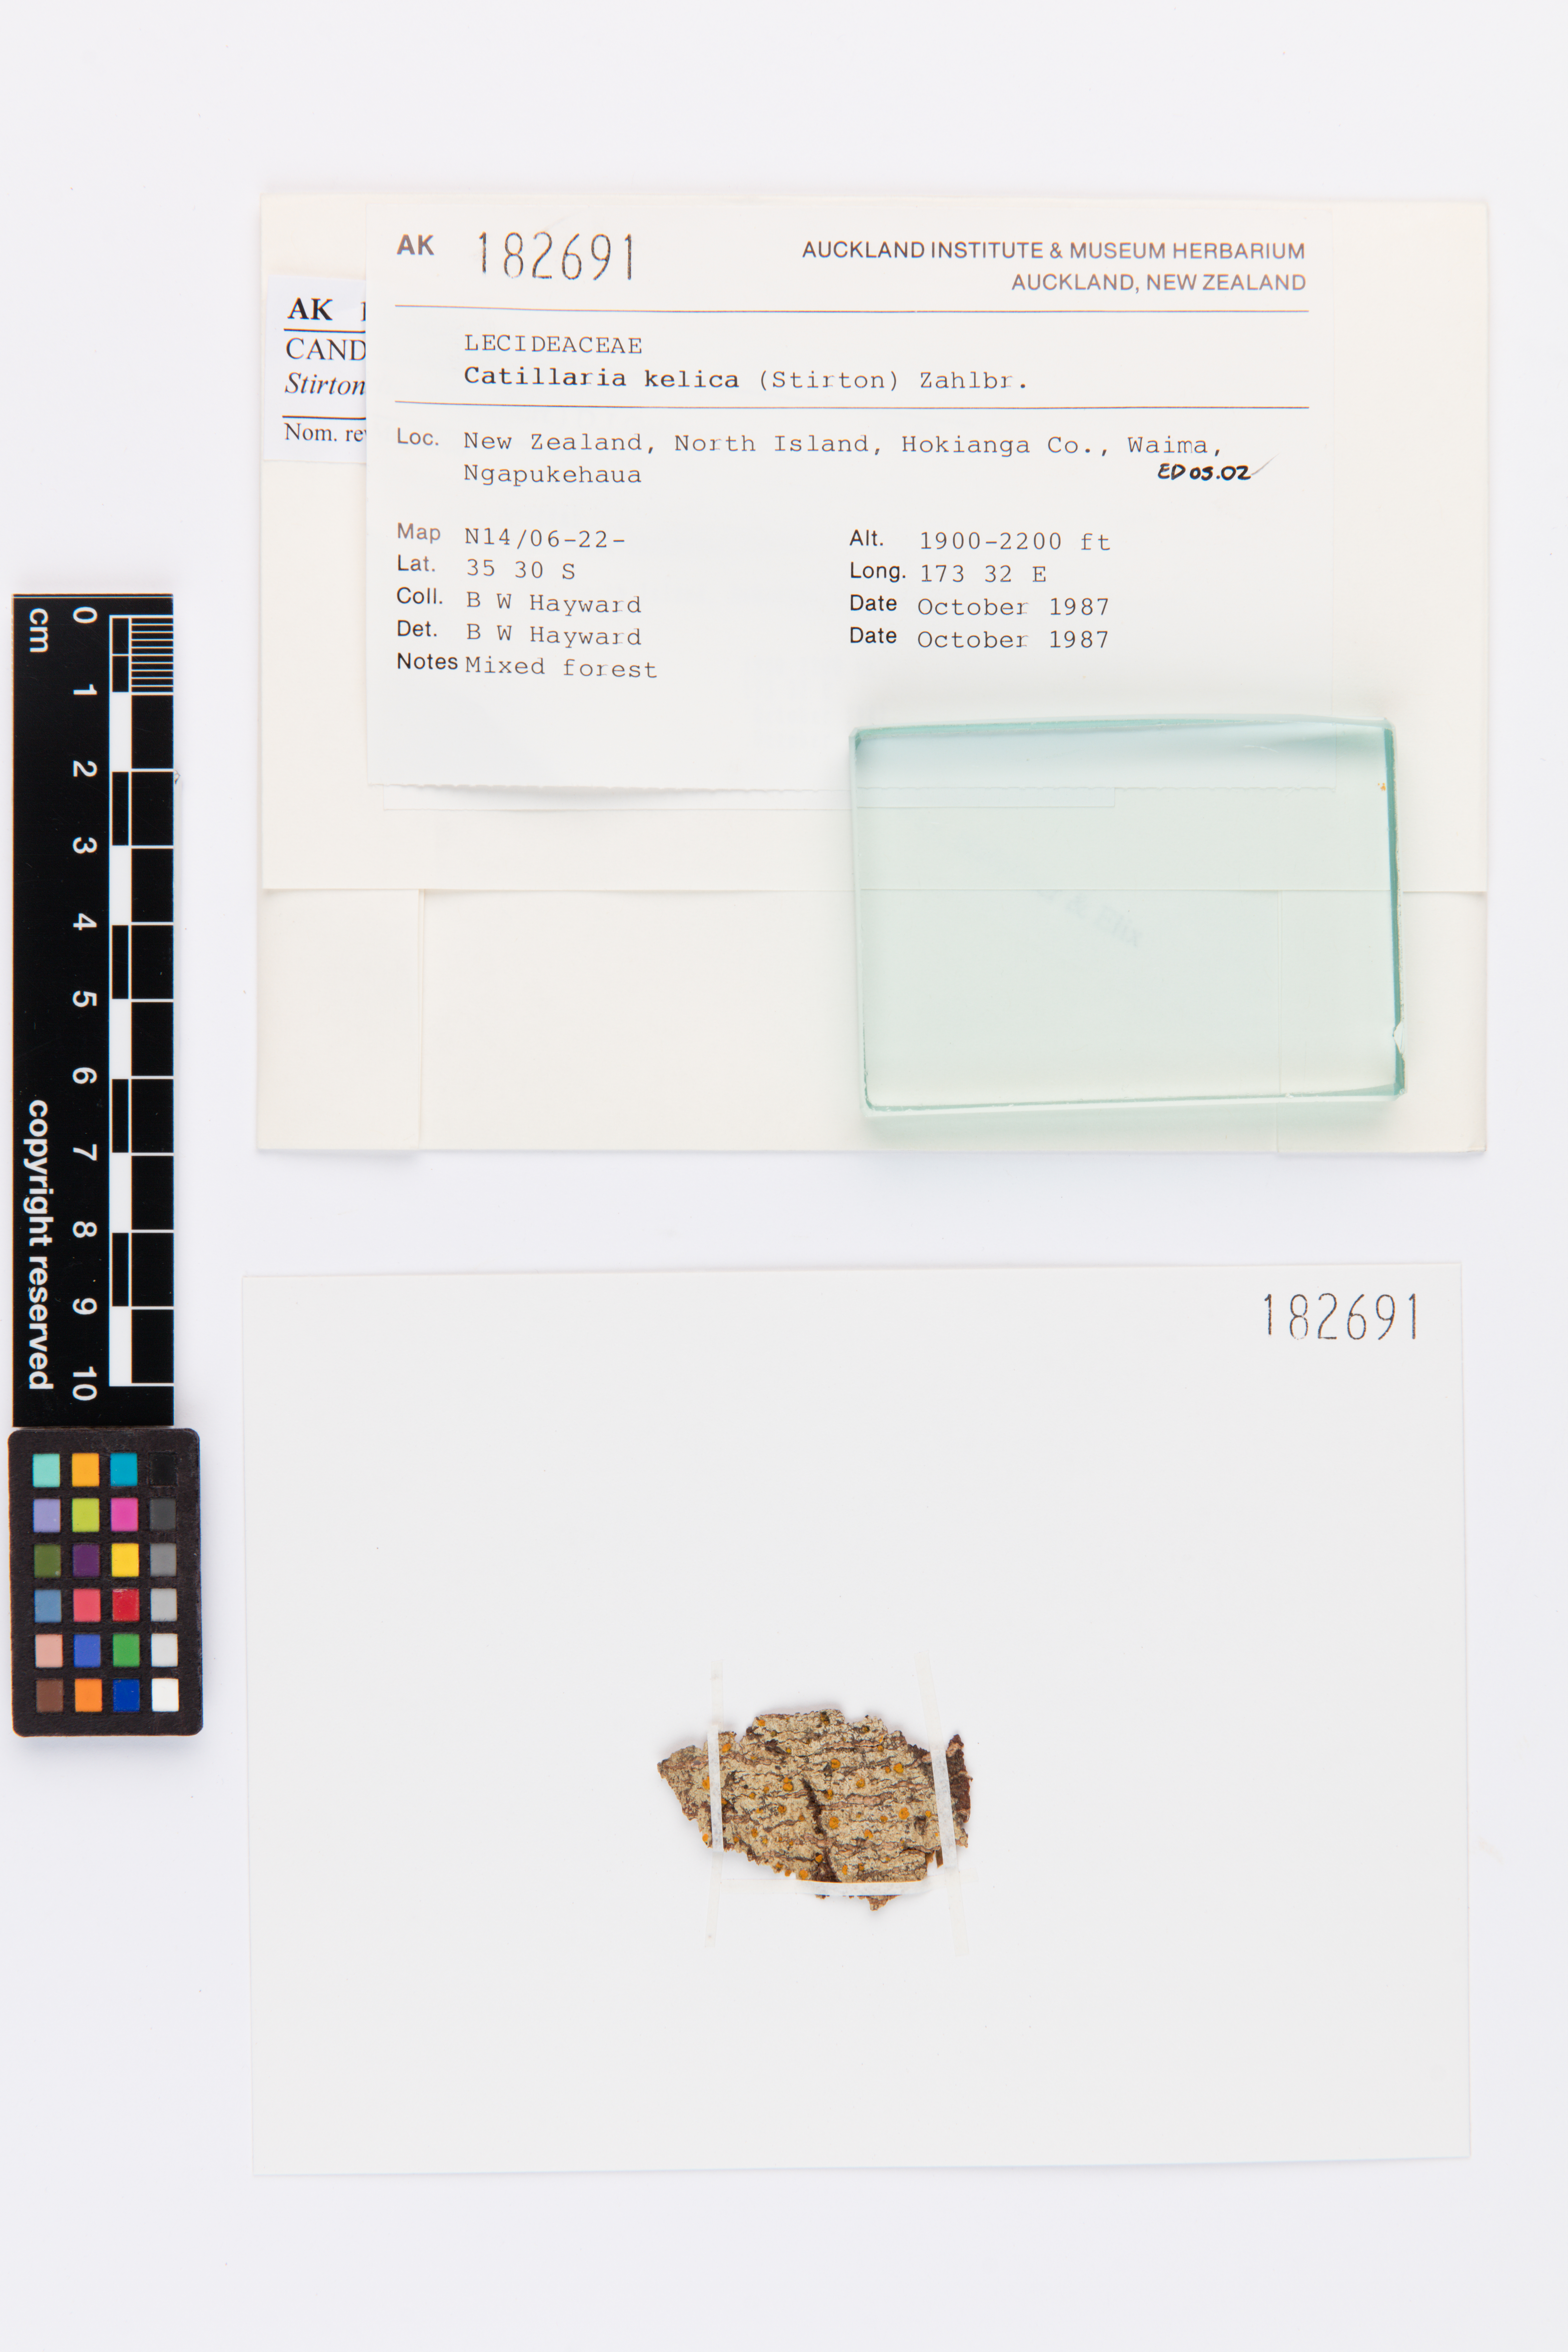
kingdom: Fungi
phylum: Ascomycota
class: Lecanoromycetes
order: Lecanorales
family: Ramalinaceae
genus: Stirtoniella
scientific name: Stirtoniella kelica
